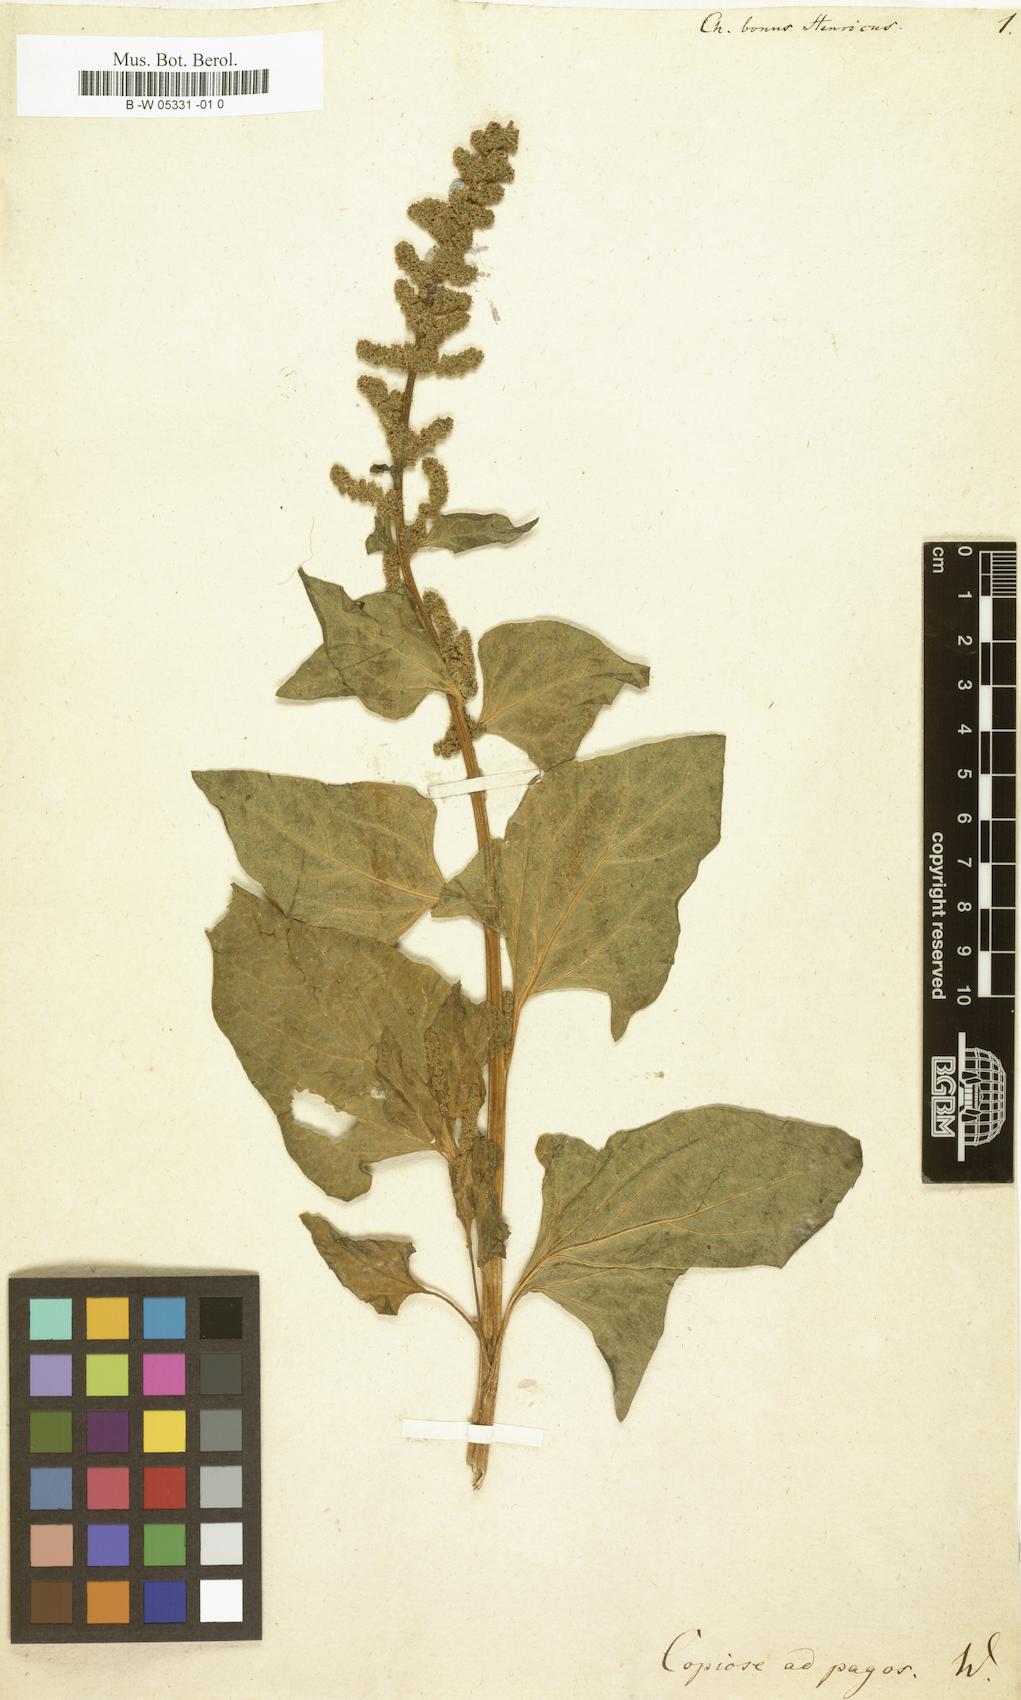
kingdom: Plantae
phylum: Tracheophyta
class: Magnoliopsida
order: Caryophyllales
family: Amaranthaceae
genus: Blitum
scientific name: Blitum bonus-henricus
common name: Good king henry
